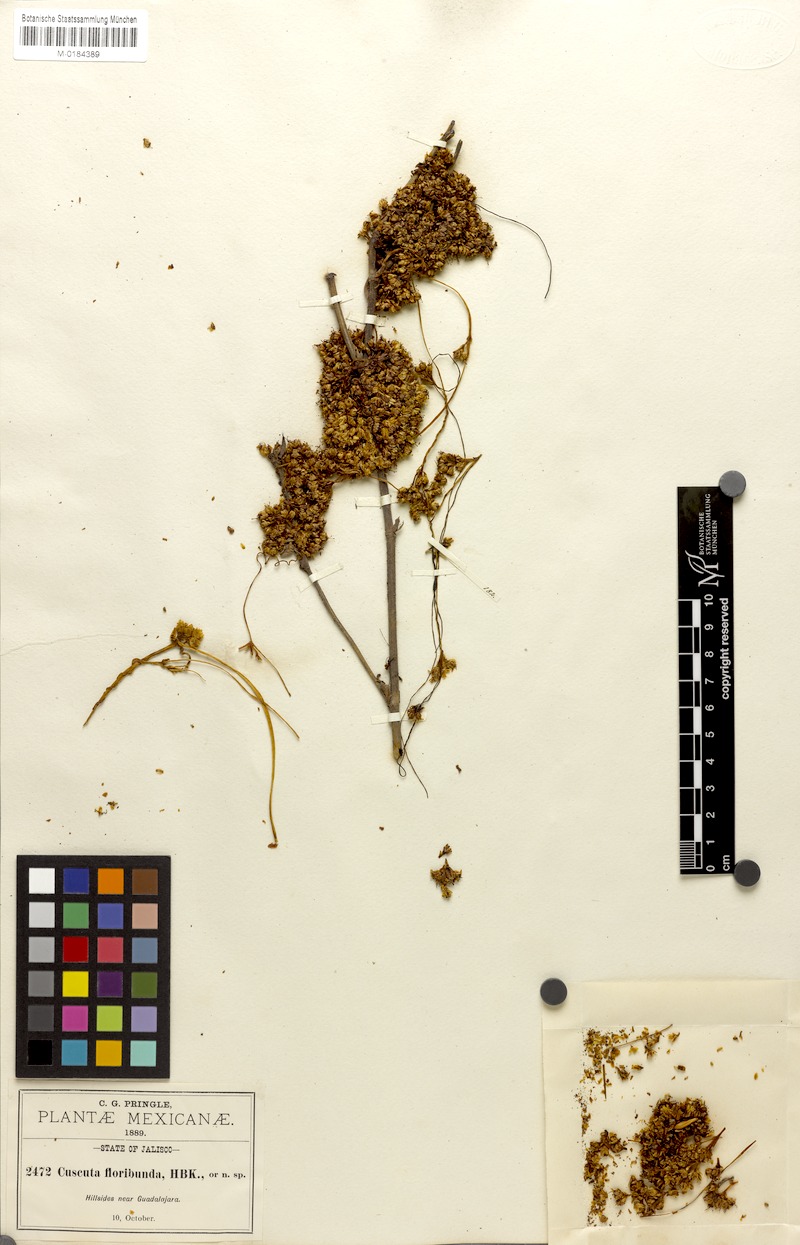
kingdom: Plantae
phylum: Tracheophyta
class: Magnoliopsida
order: Solanales
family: Convolvulaceae
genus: Cuscuta
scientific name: Cuscuta strobilacea
